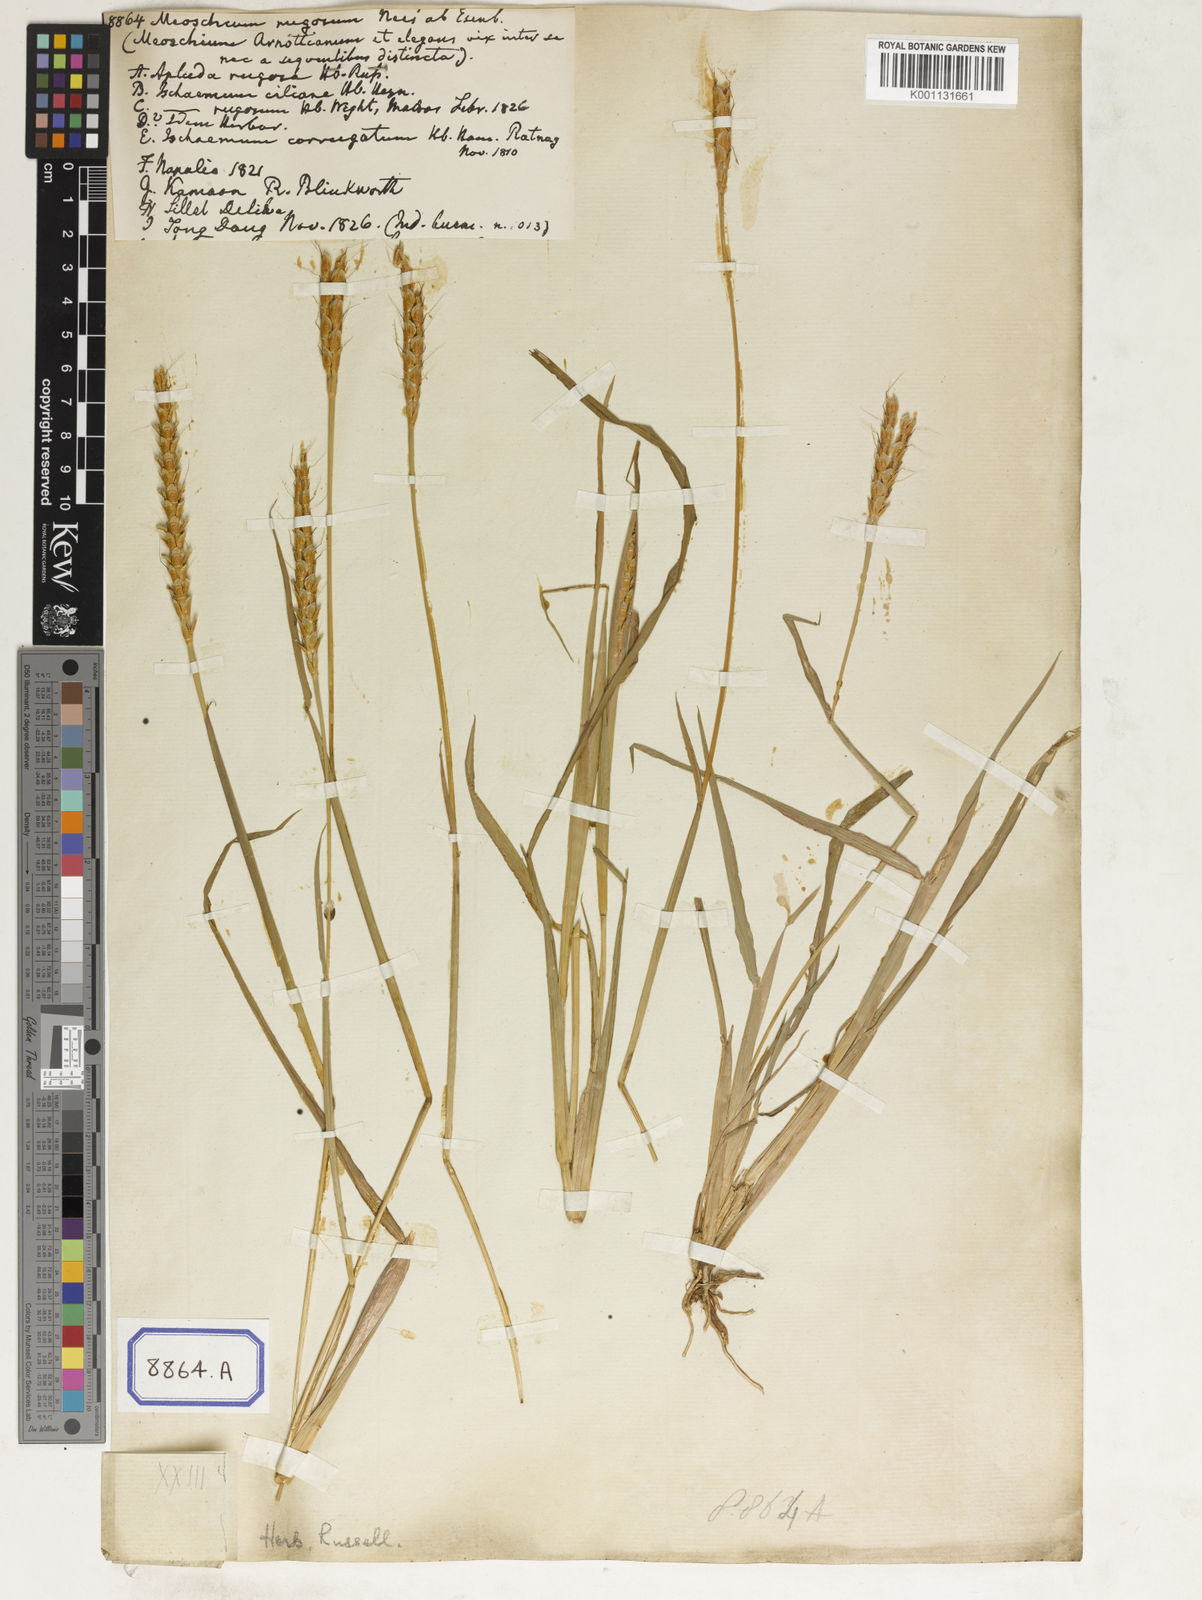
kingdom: Plantae
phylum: Tracheophyta
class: Liliopsida
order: Poales
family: Poaceae
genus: Ischaemum
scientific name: Ischaemum rugosum
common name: Saramatta grass
